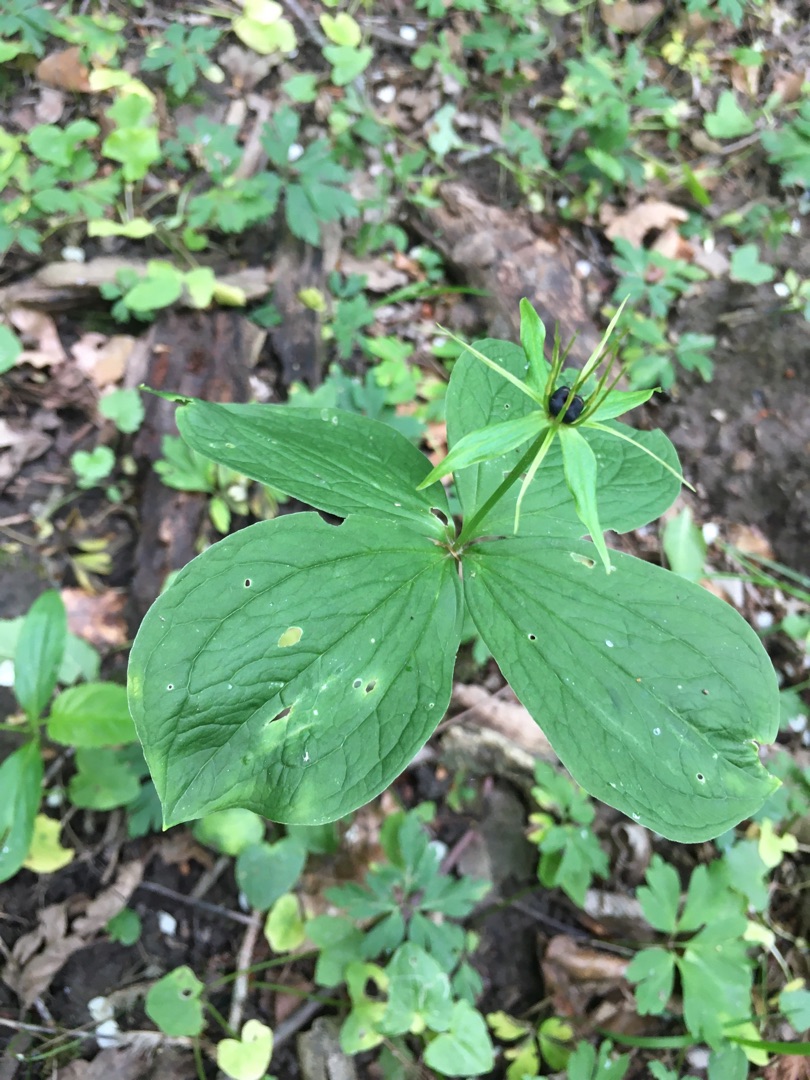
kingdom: Plantae
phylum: Tracheophyta
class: Liliopsida
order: Liliales
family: Melanthiaceae
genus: Paris
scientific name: Paris quadrifolia
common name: Firblad
